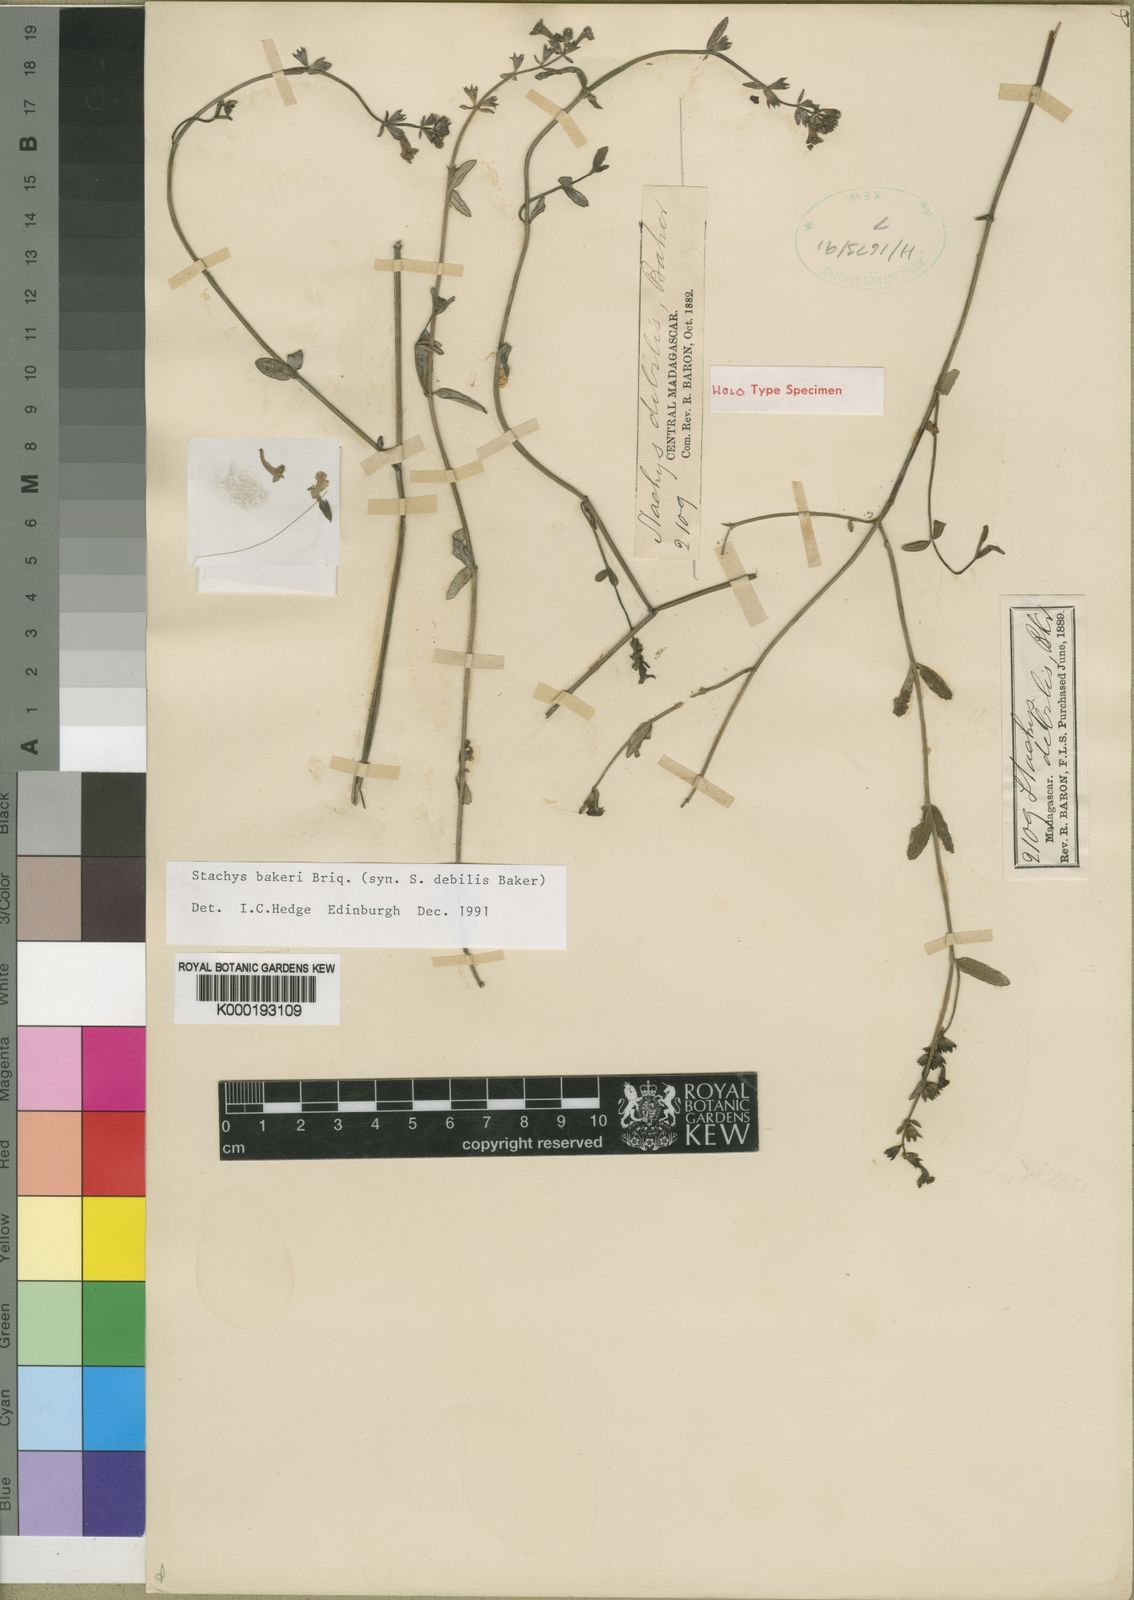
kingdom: Plantae
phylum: Tracheophyta
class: Magnoliopsida
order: Lamiales
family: Lamiaceae
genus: Stachys
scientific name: Stachys
